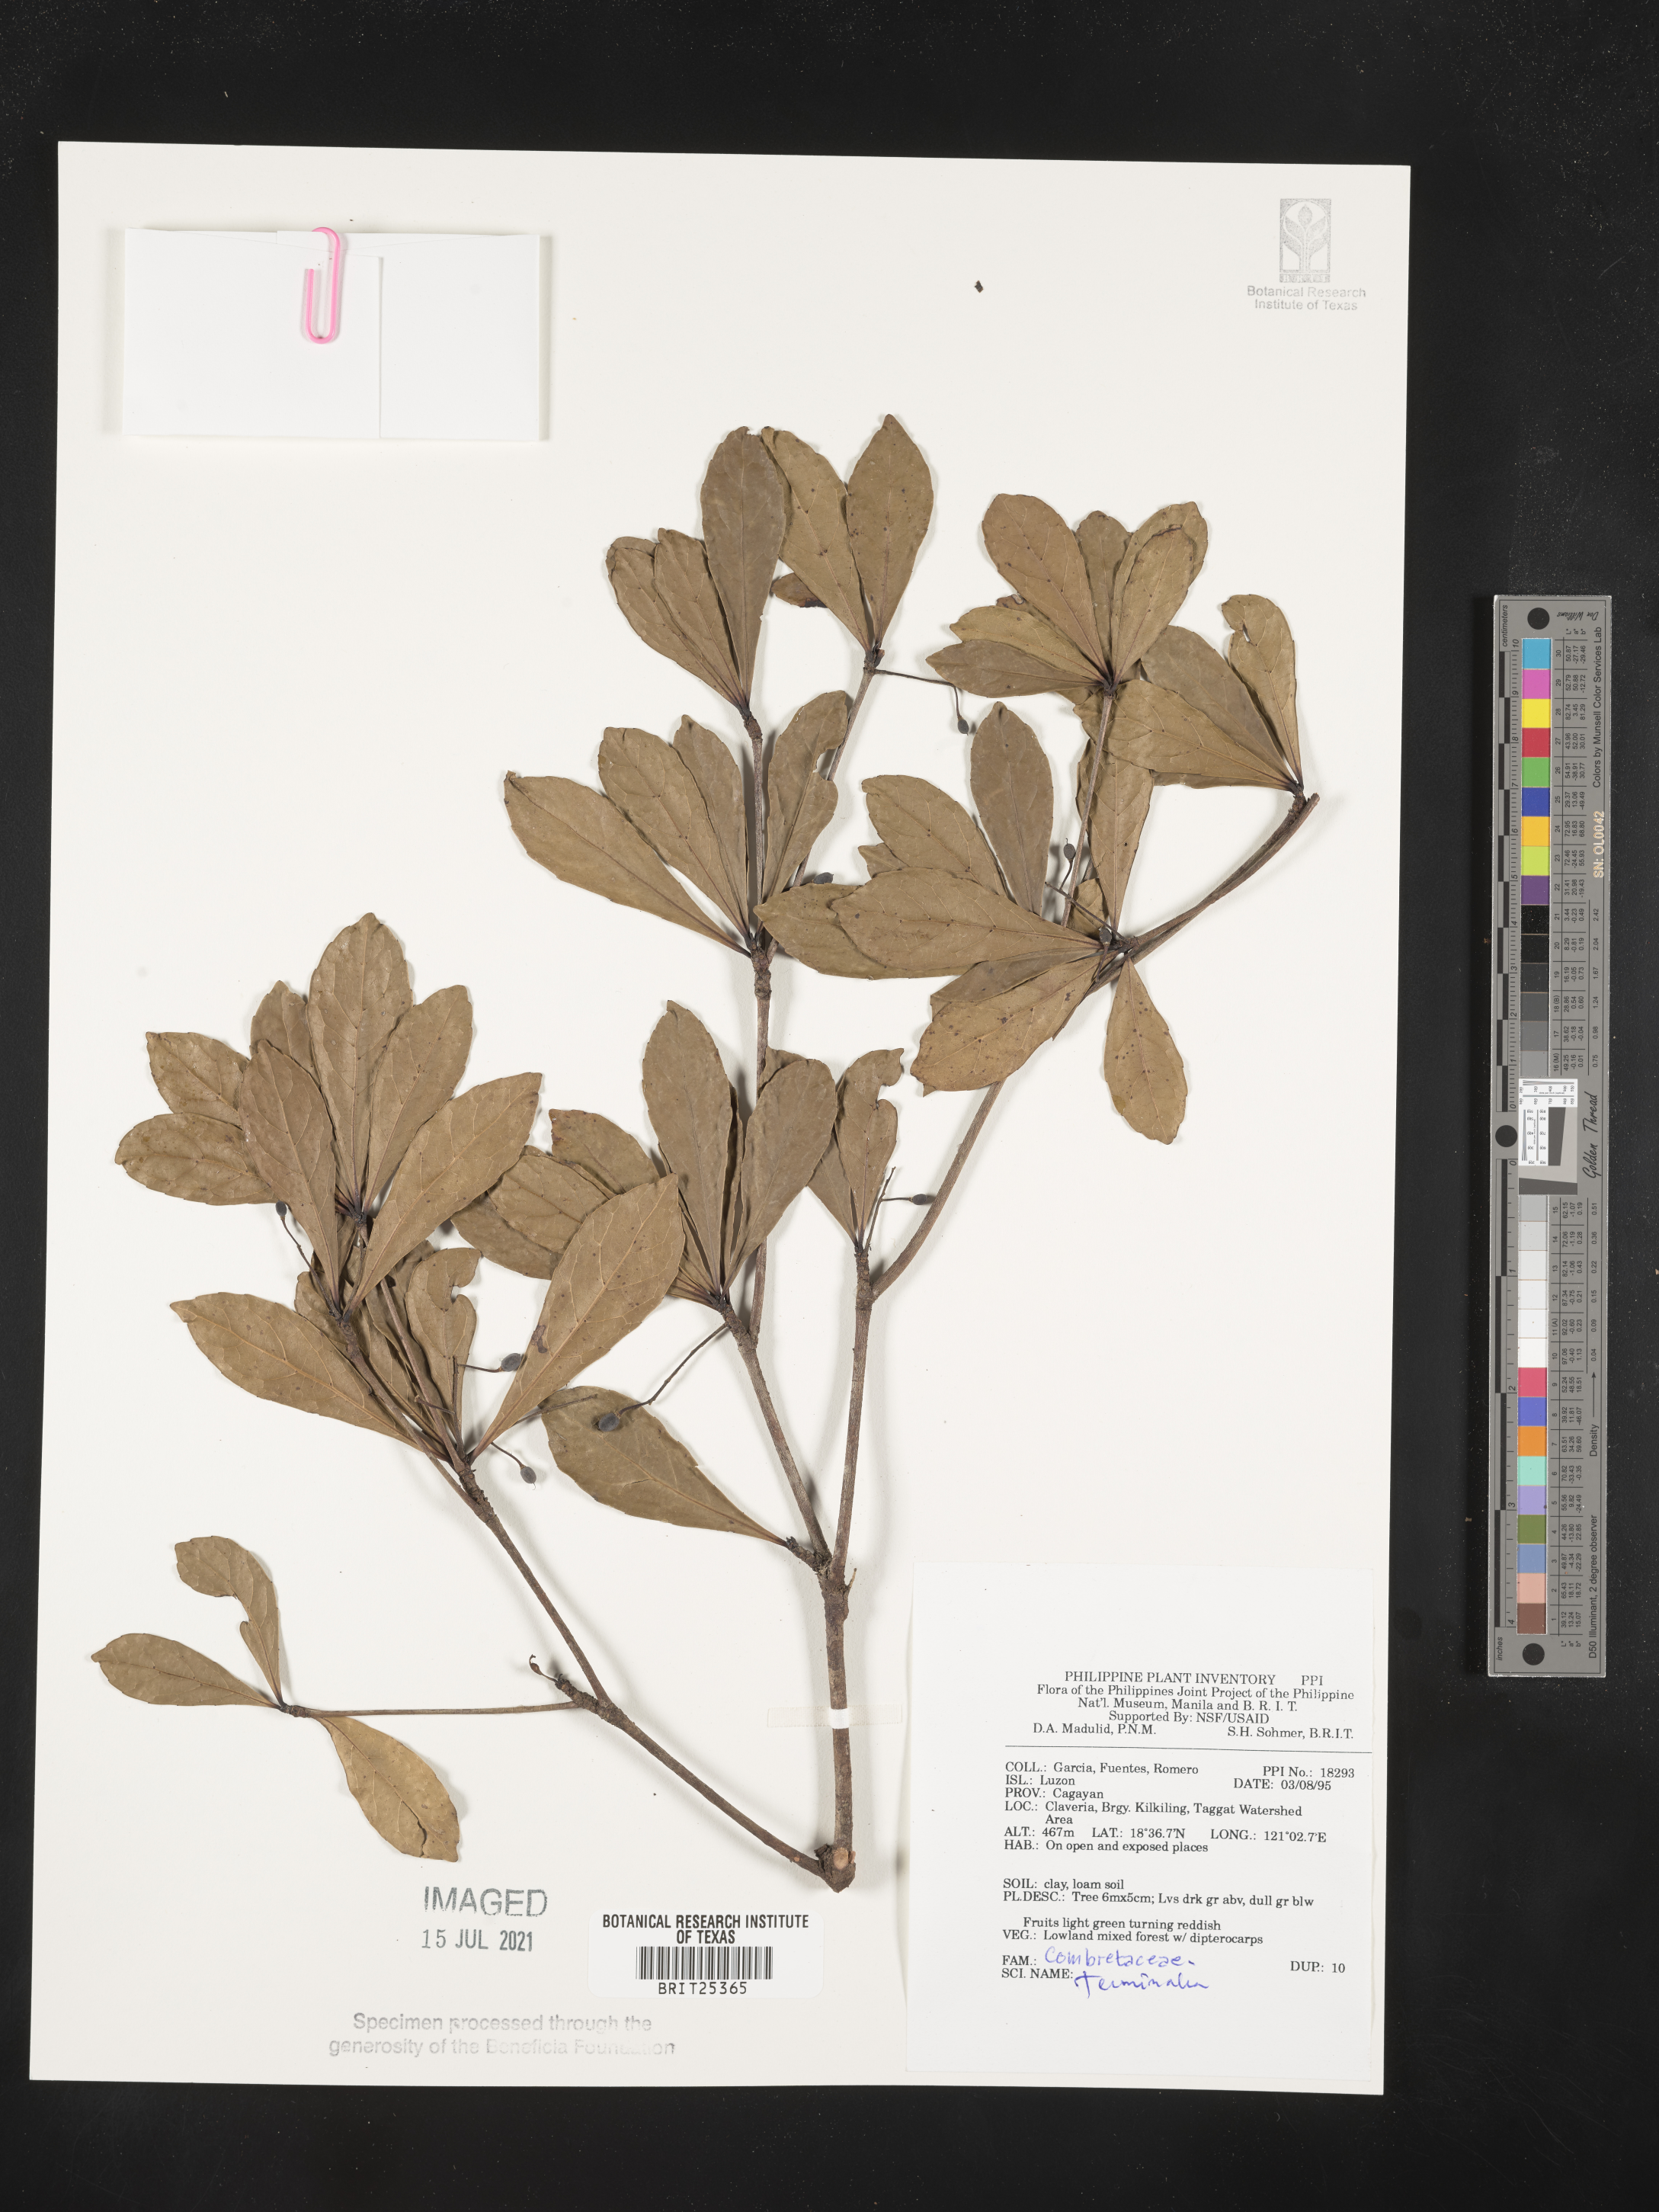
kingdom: Plantae
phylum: Tracheophyta
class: Magnoliopsida
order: Myrtales
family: Combretaceae
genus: Terminalia
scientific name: Terminalia
